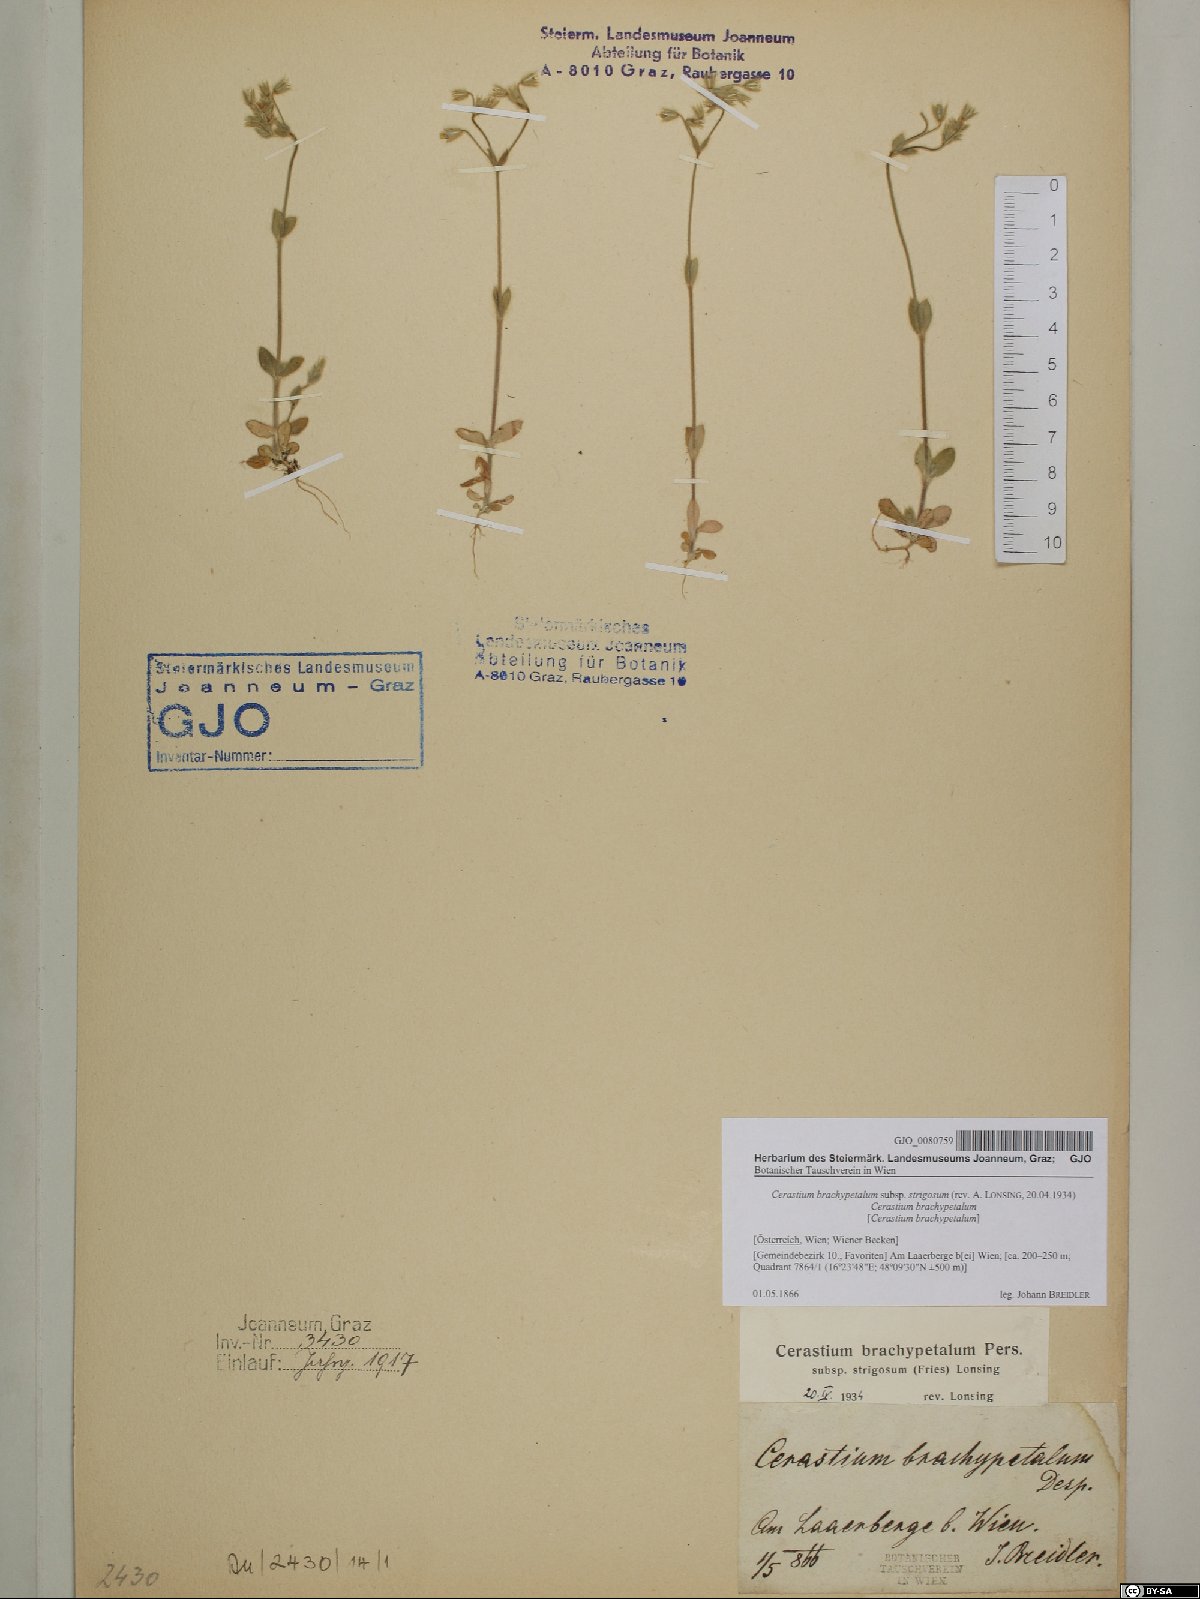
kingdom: Plantae
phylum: Tracheophyta
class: Magnoliopsida
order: Caryophyllales
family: Caryophyllaceae
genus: Cerastium
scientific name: Cerastium brachypetalum
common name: Grey mouse-ear
